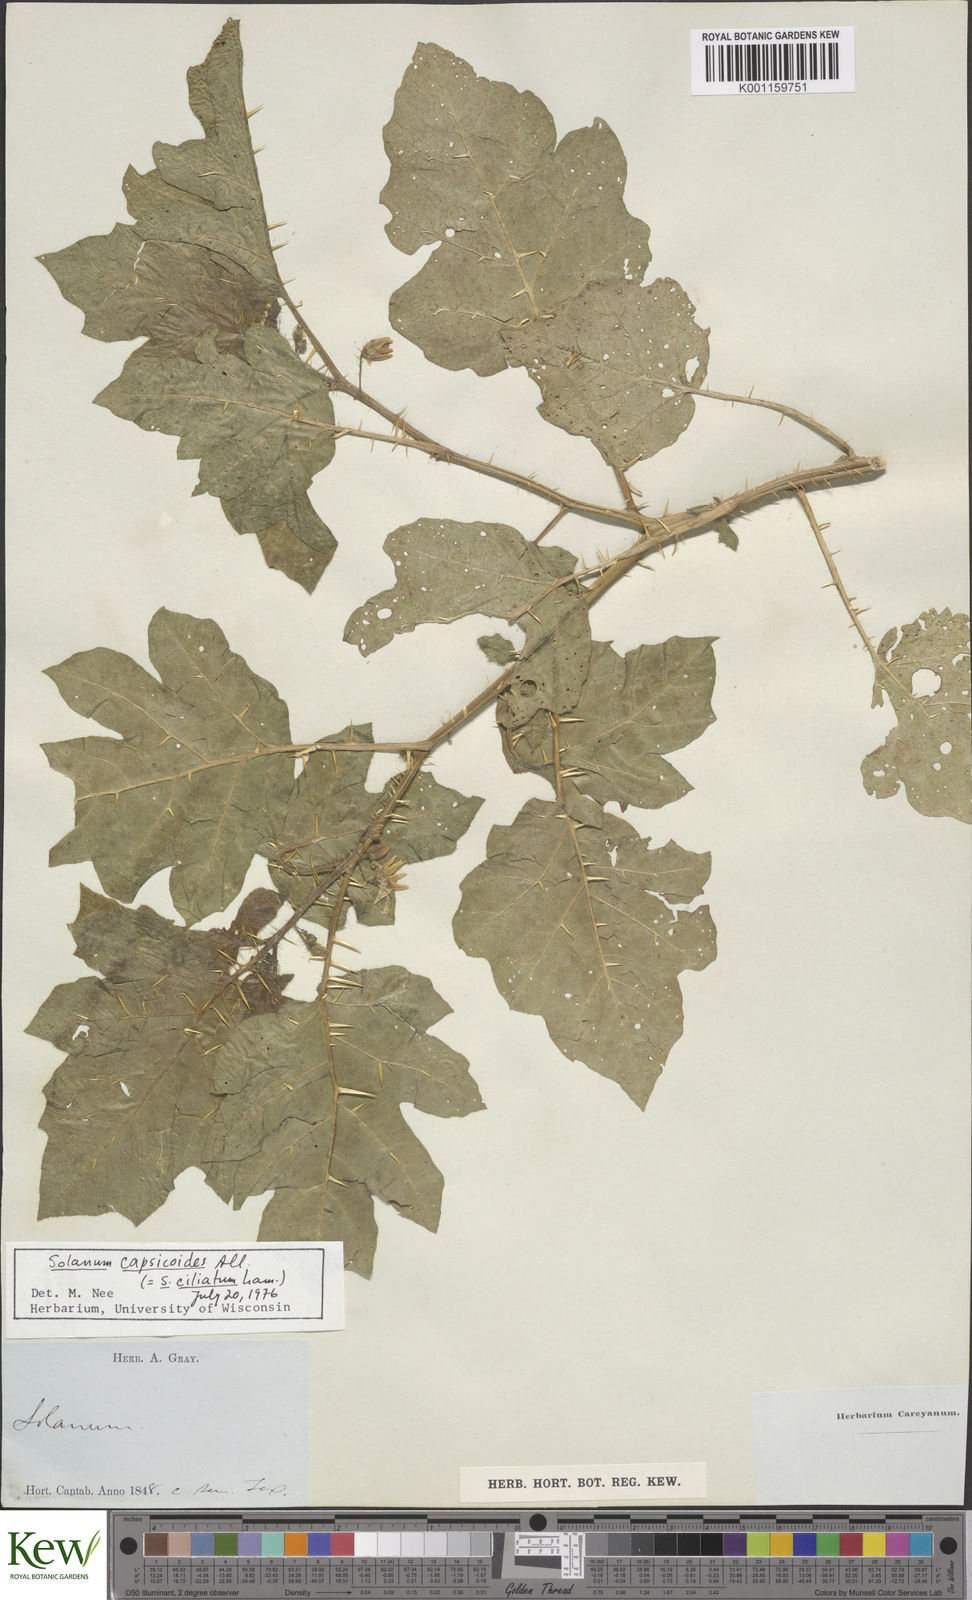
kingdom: Plantae
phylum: Tracheophyta
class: Magnoliopsida
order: Solanales
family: Solanaceae
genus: Solanum
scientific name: Solanum
